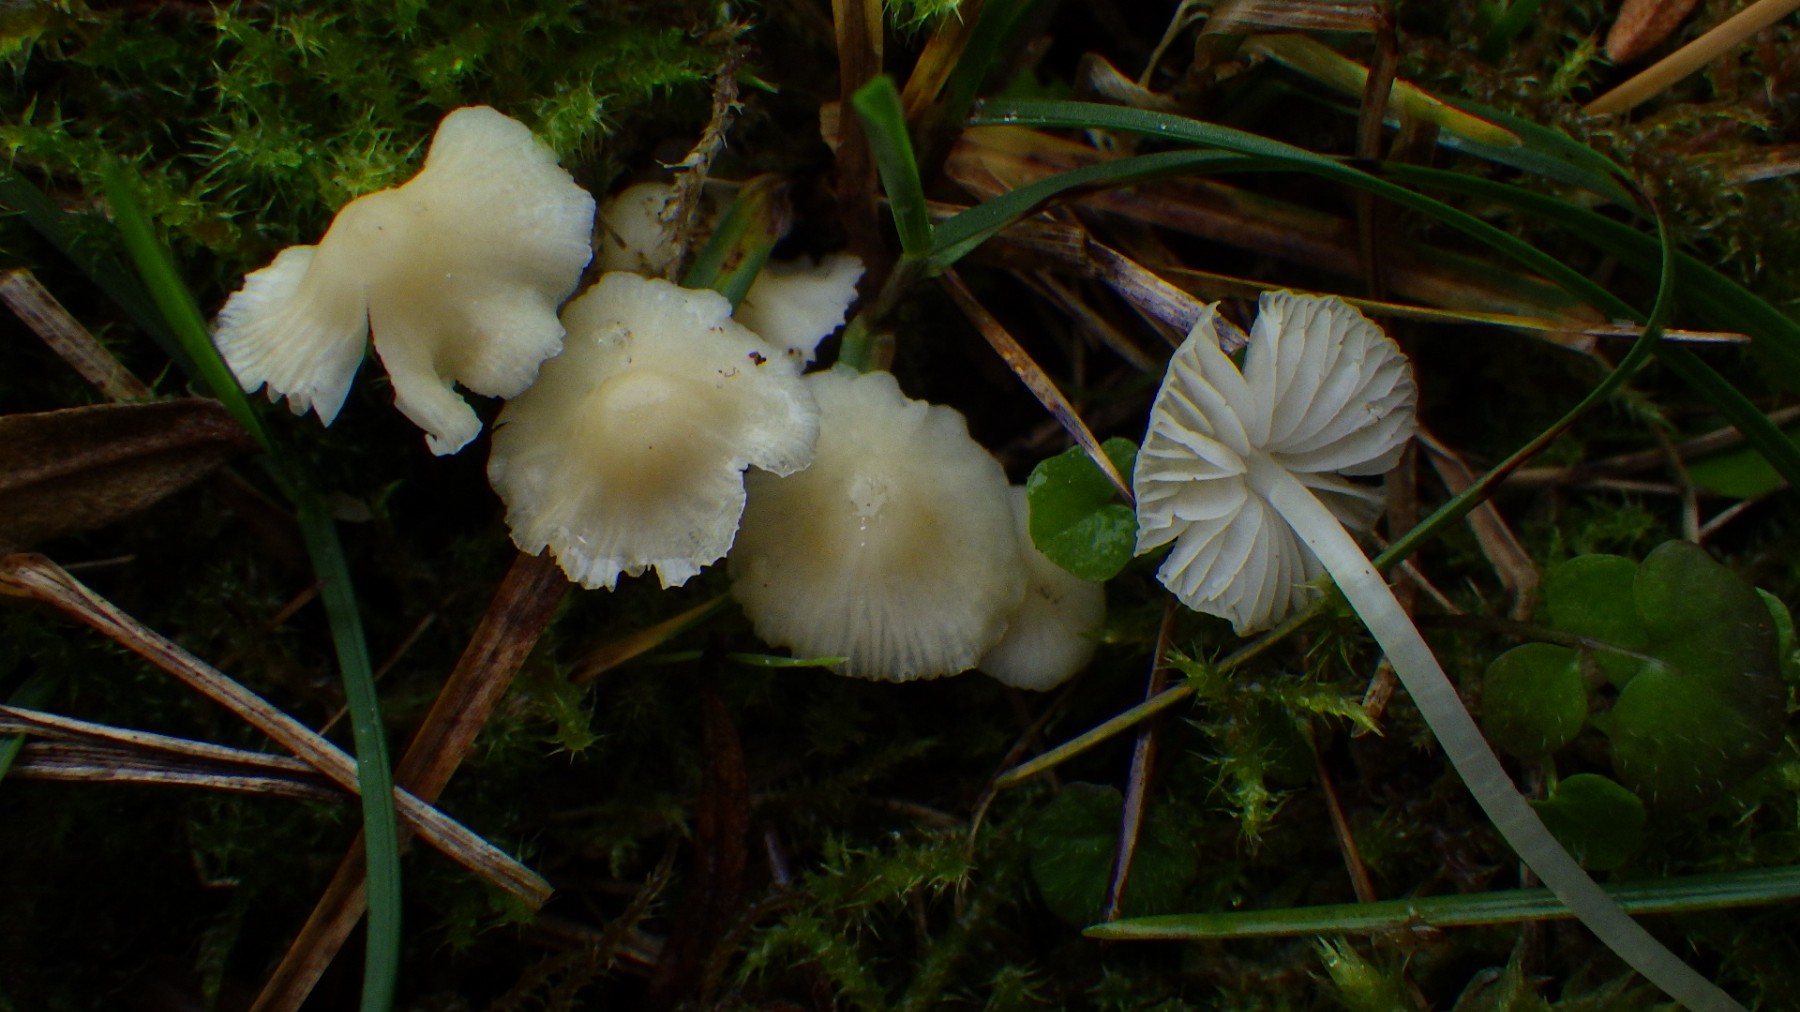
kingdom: Fungi
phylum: Basidiomycota
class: Agaricomycetes
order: Agaricales
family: Hygrophoraceae
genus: Cuphophyllus
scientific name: Cuphophyllus russocoriaceus
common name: ruslæder-vokshat
